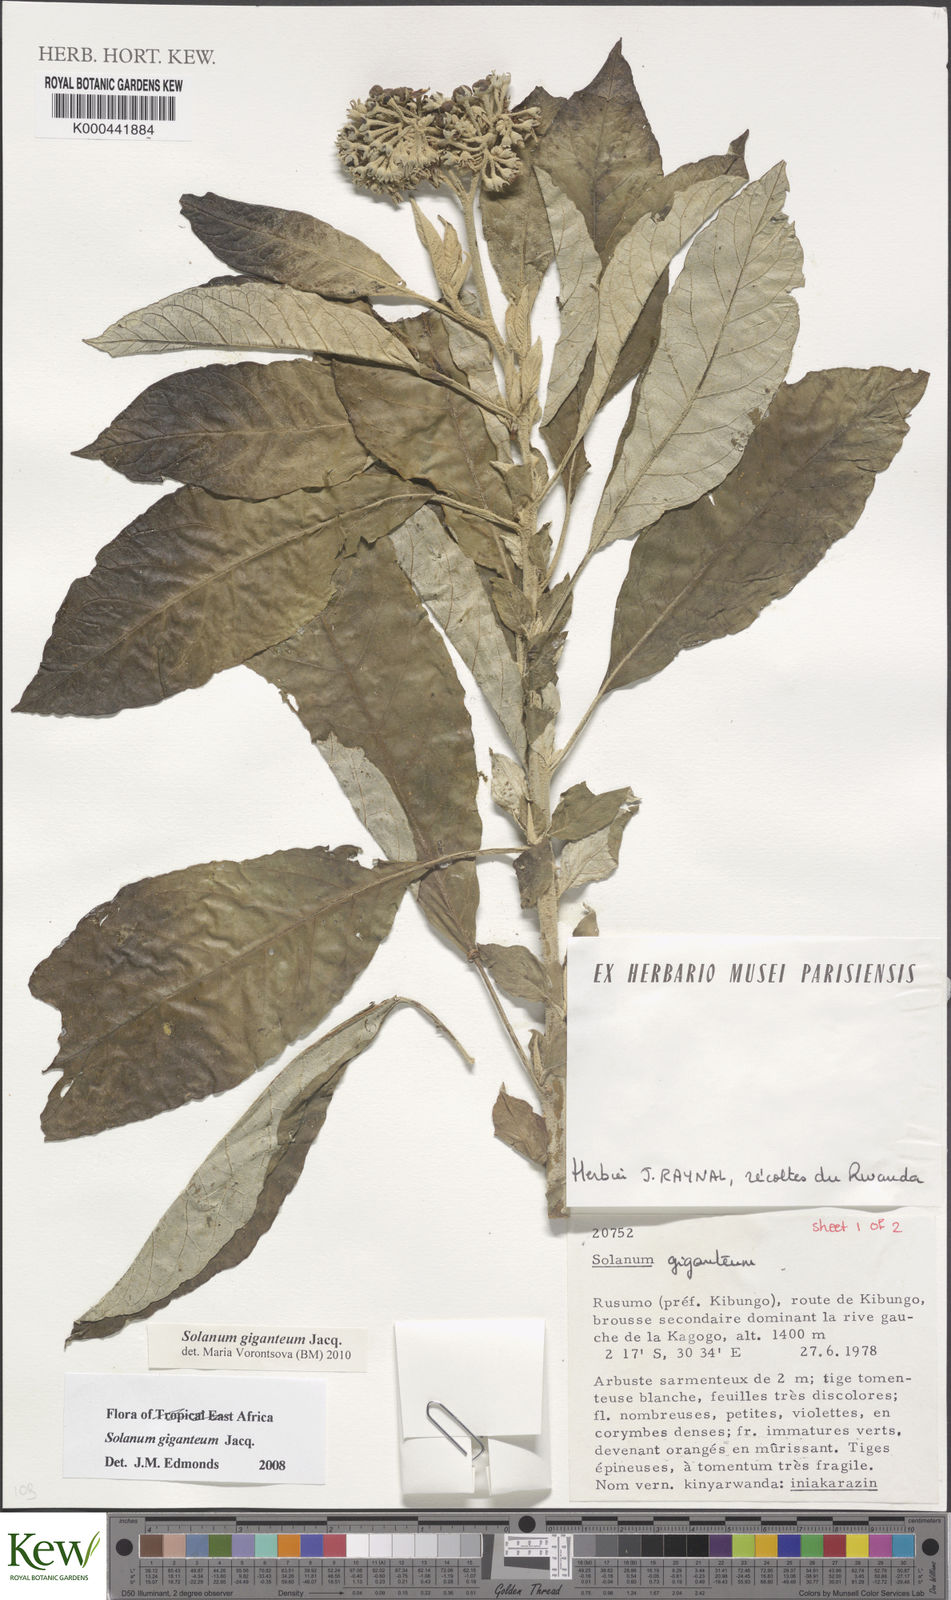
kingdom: Plantae
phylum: Tracheophyta
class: Magnoliopsida
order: Solanales
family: Solanaceae
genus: Solanum
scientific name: Solanum giganteum
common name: Healing-leaf-tree
